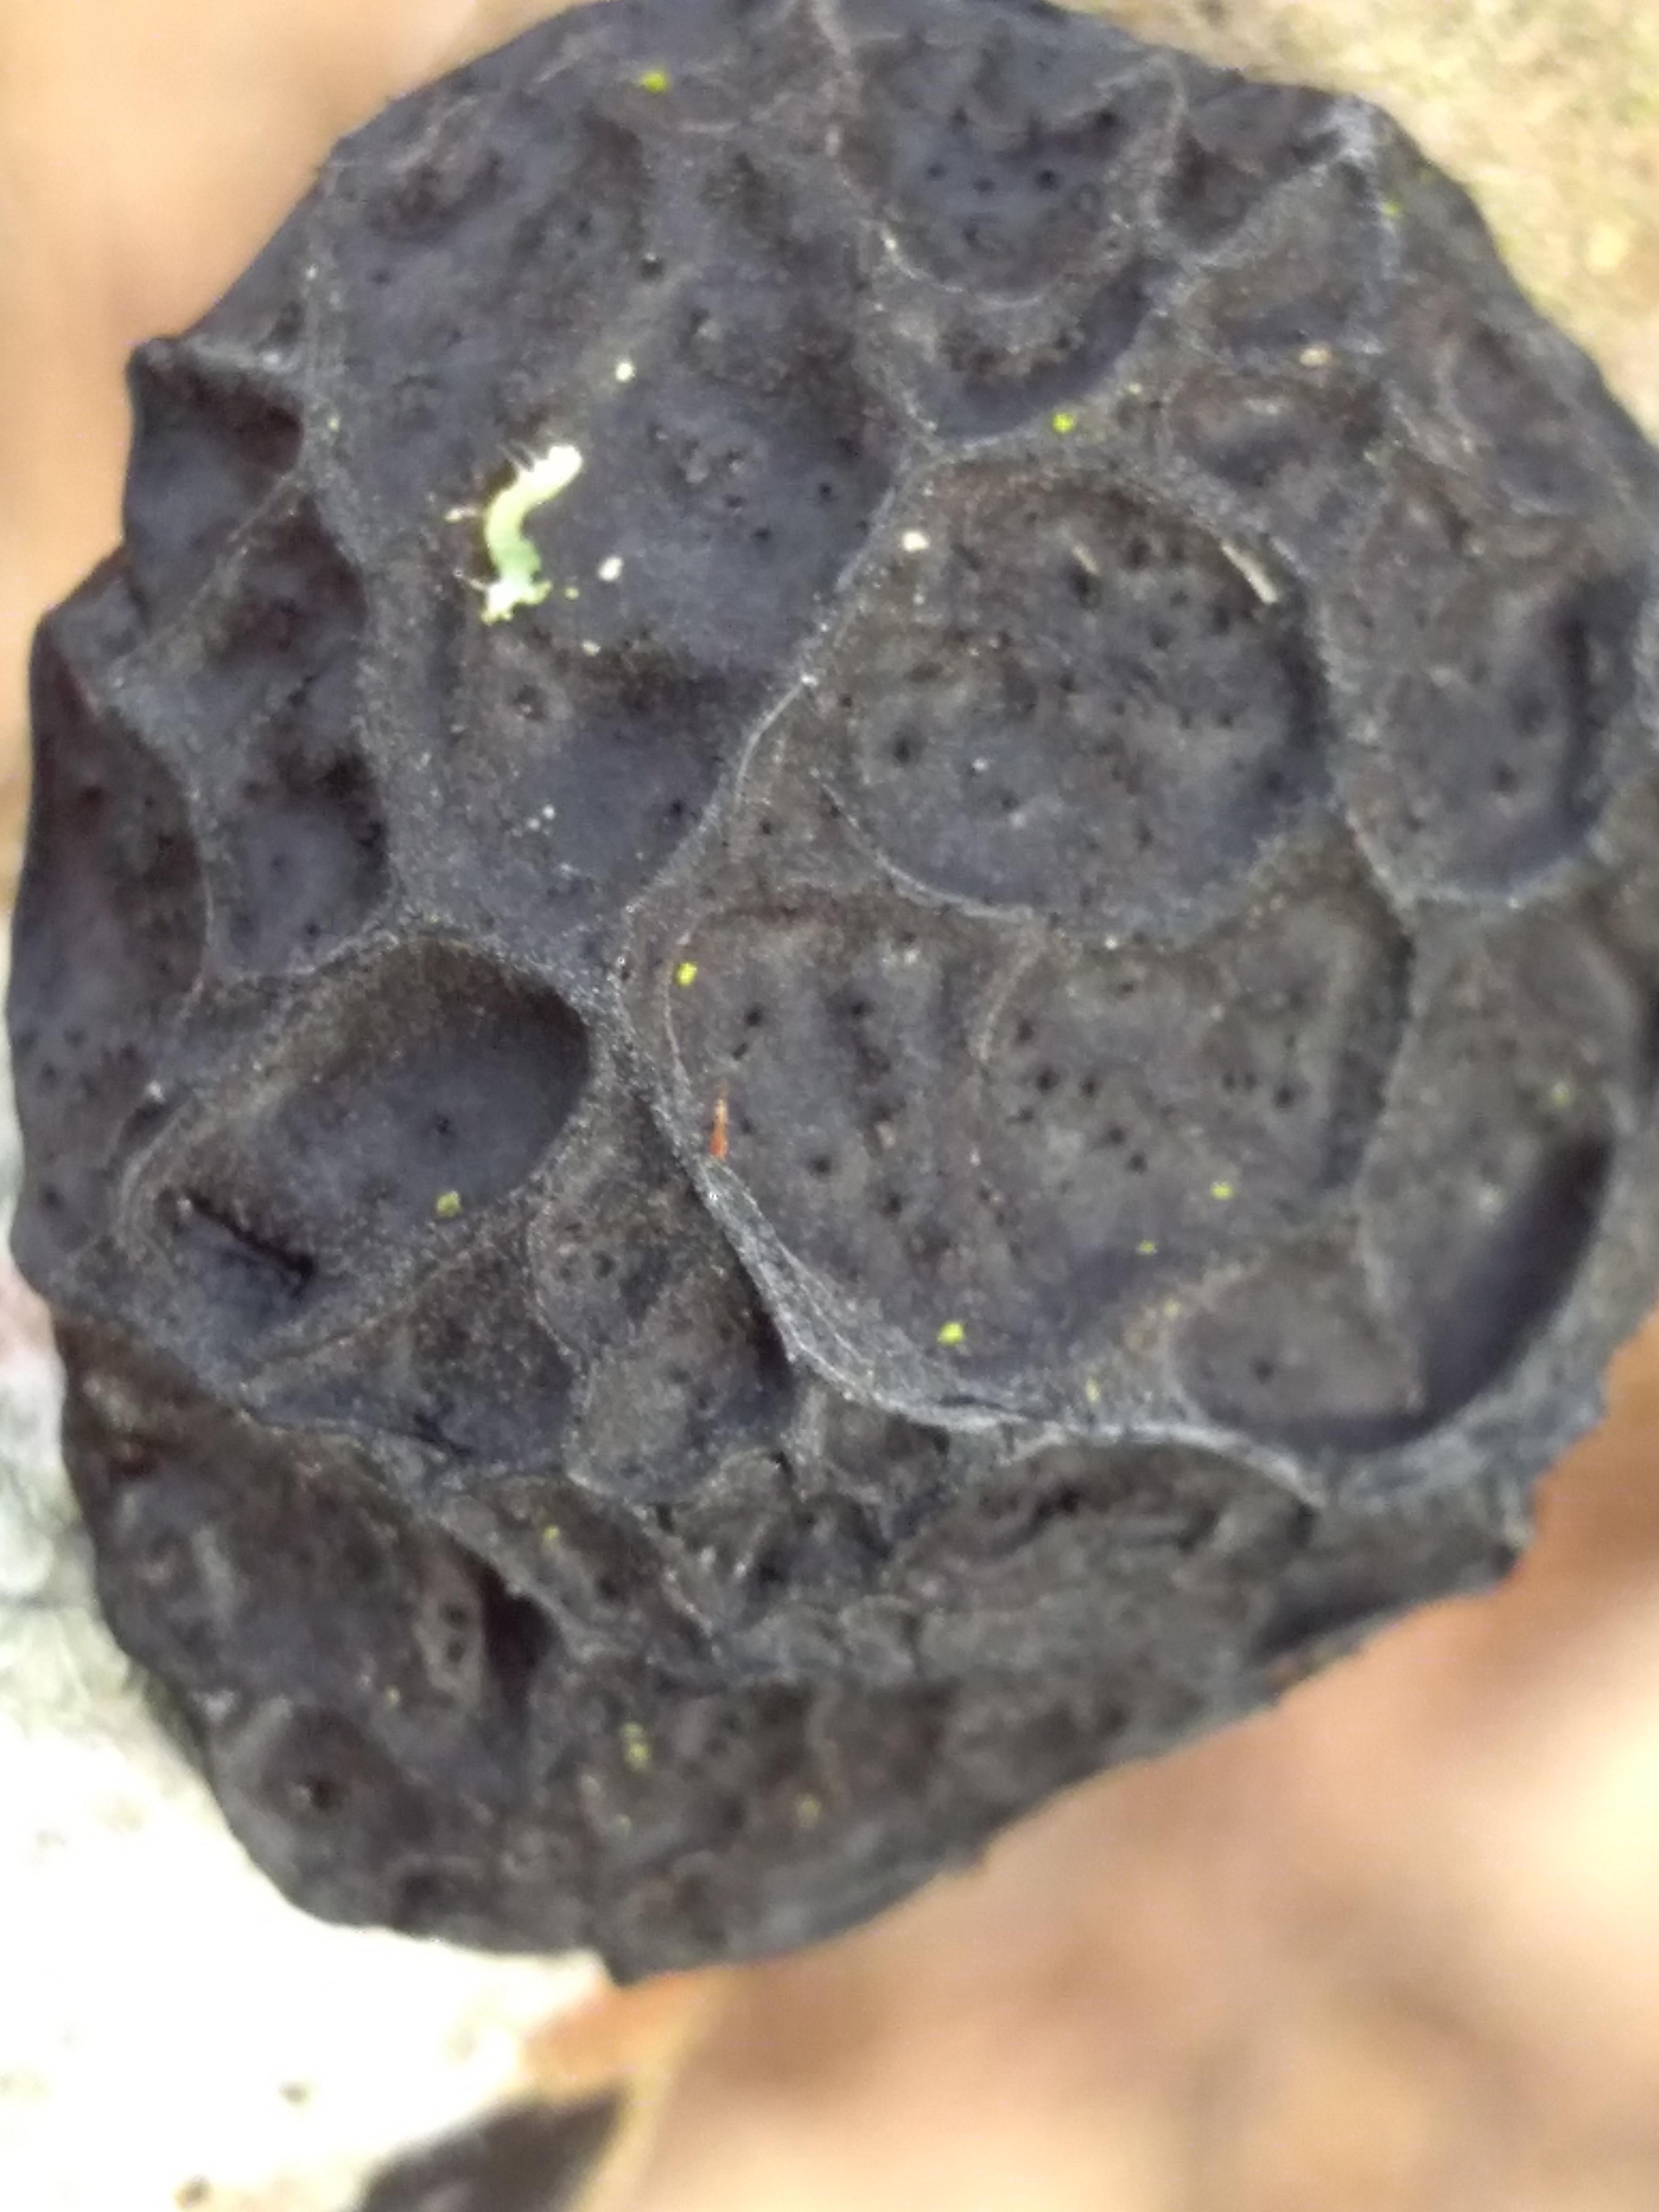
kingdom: Fungi
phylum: Basidiomycota
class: Agaricomycetes
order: Auriculariales
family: Auriculariaceae
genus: Exidia
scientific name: Exidia glandulosa
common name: ege-bævretop
